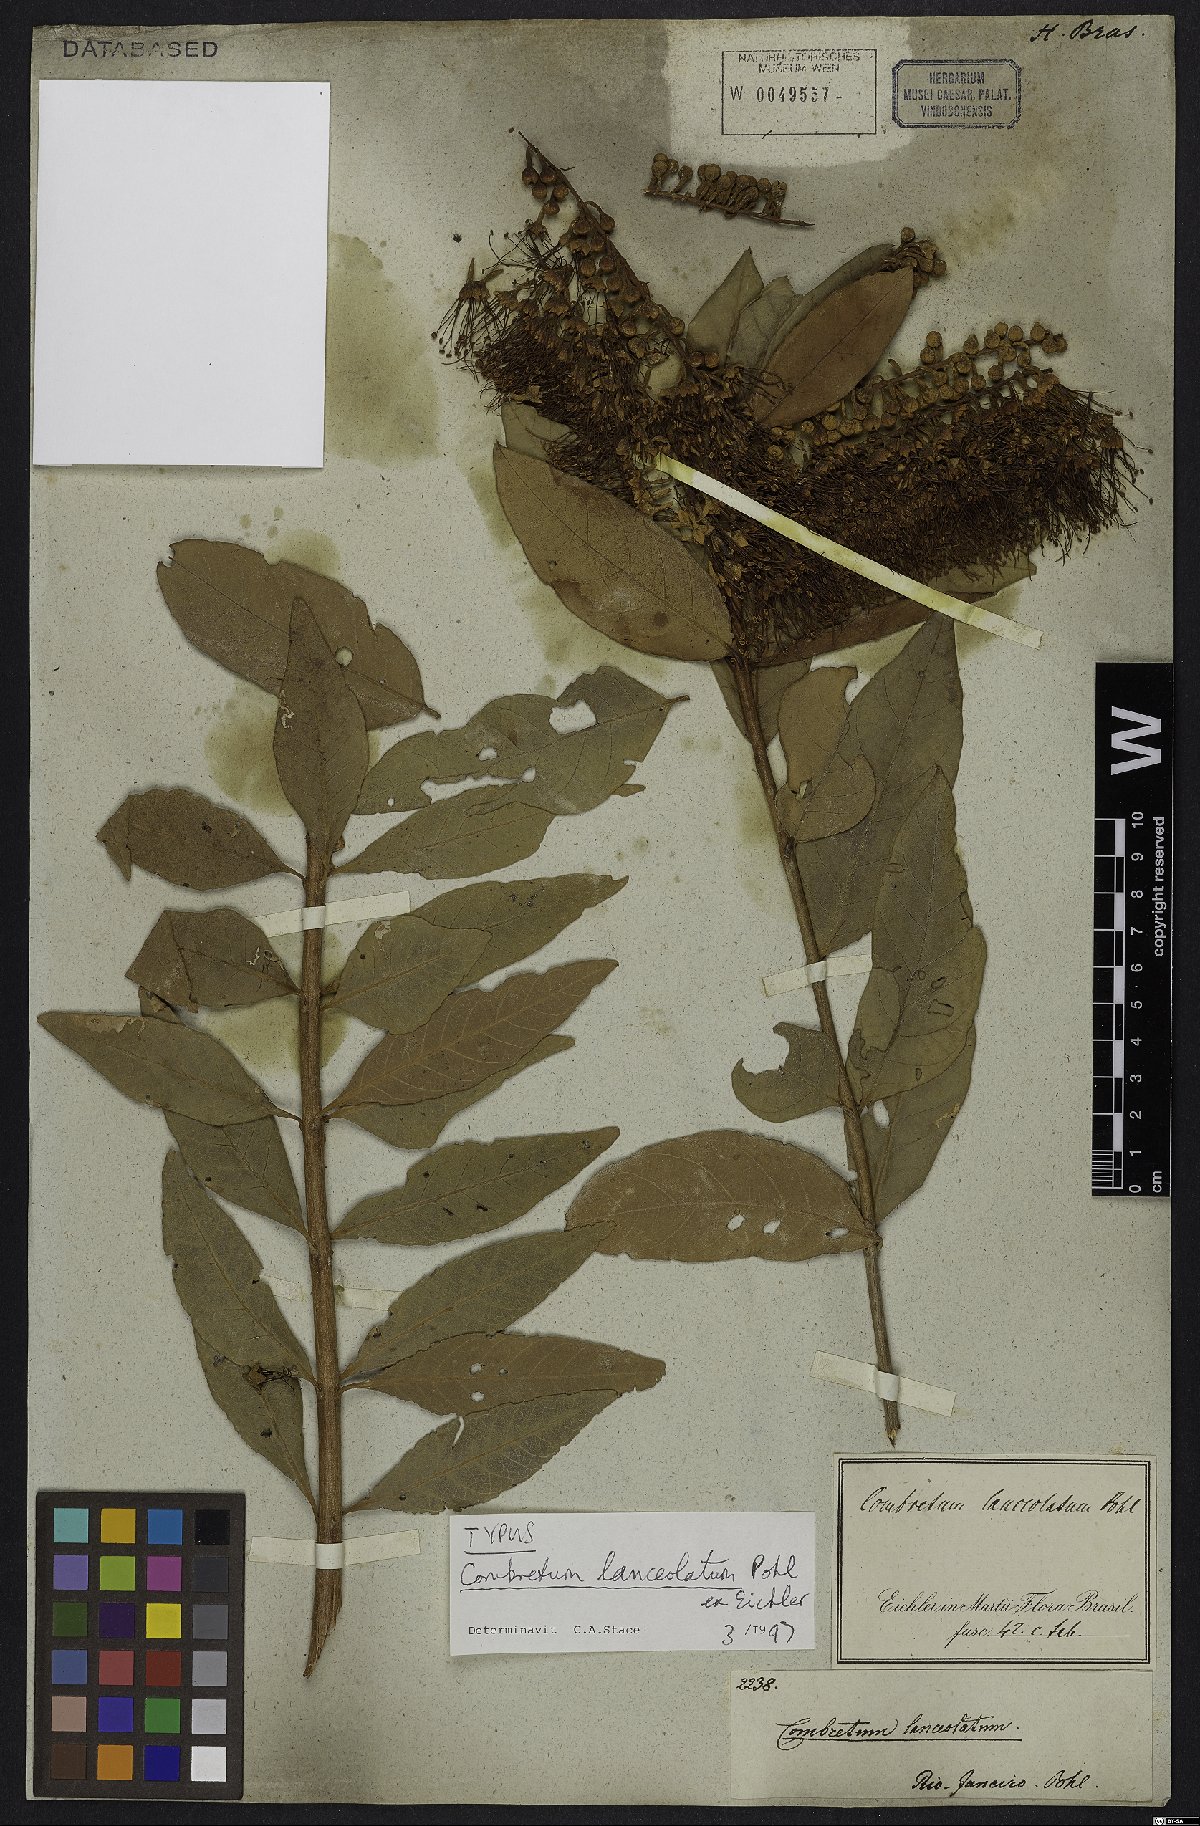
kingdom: Plantae
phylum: Tracheophyta
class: Magnoliopsida
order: Myrtales
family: Combretaceae
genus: Combretum
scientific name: Combretum lanceolatum
